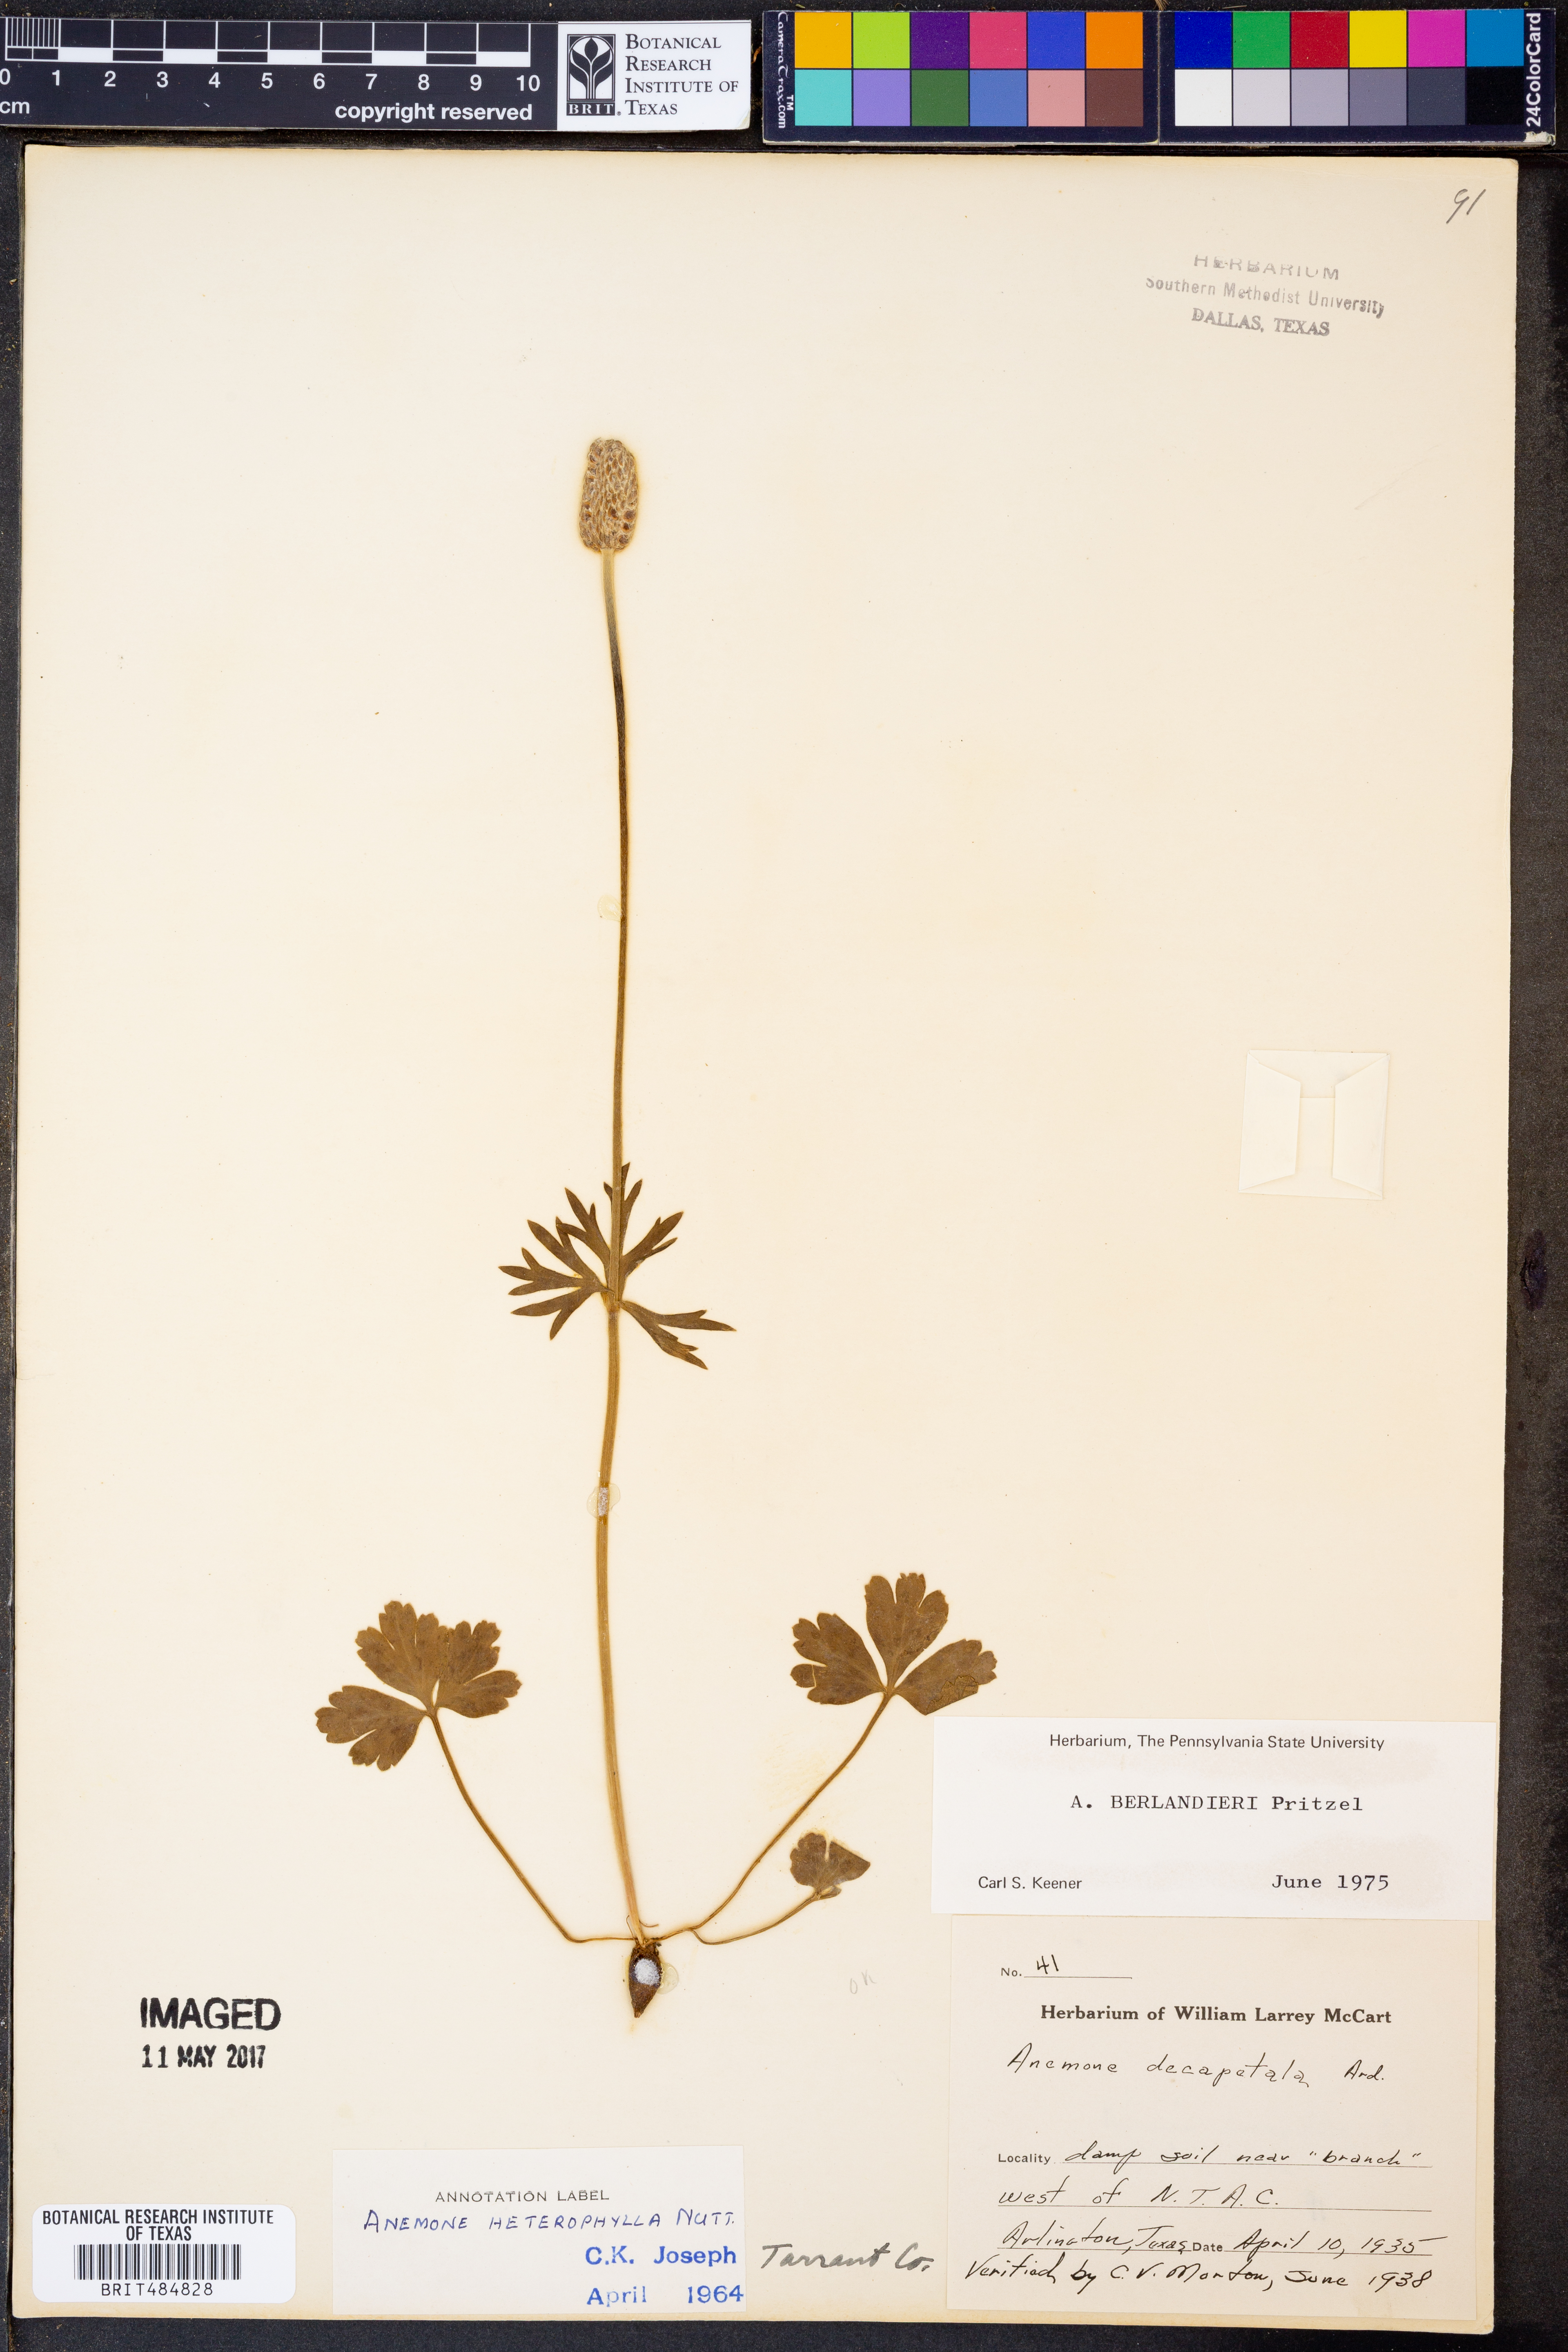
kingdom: Plantae
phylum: Tracheophyta
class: Magnoliopsida
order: Ranunculales
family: Ranunculaceae
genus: Anemone
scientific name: Anemone berlandieri
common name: Ten-petal anemone
